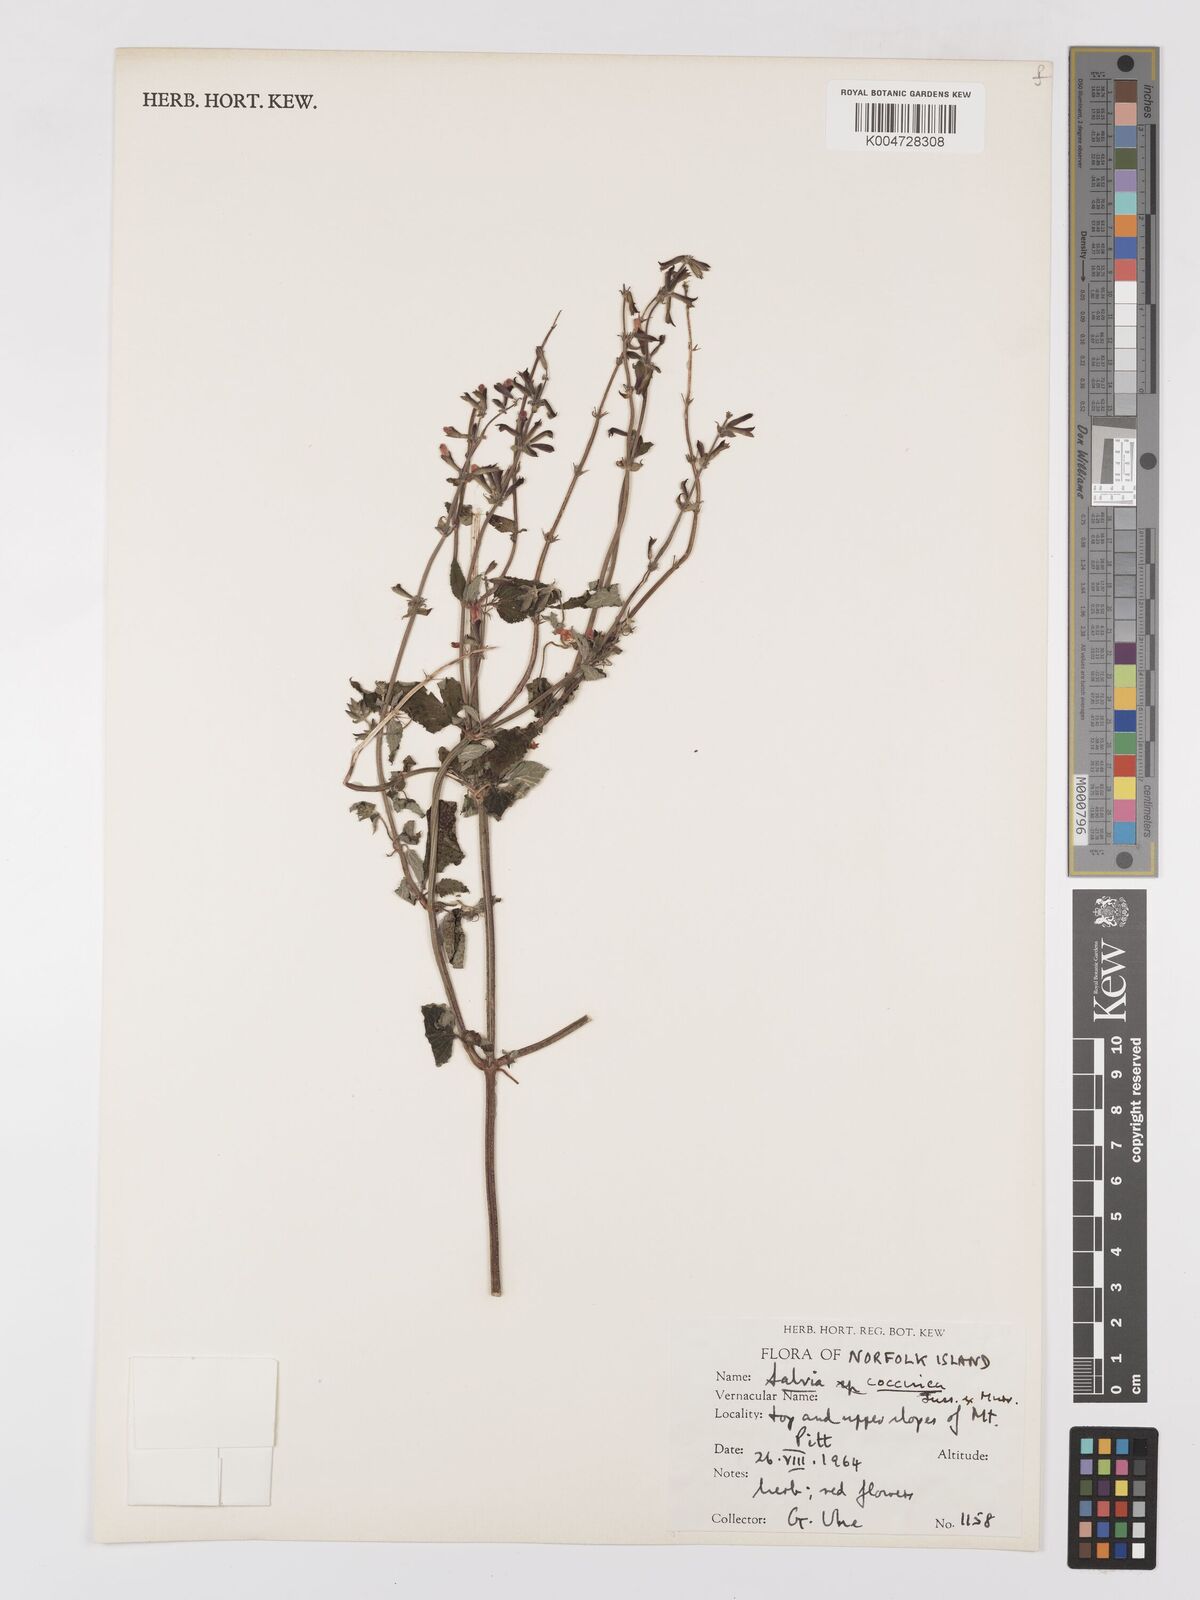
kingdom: Plantae
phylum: Tracheophyta
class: Magnoliopsida
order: Lamiales
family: Lamiaceae
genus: Salvia
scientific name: Salvia coccinea
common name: Blood sage
